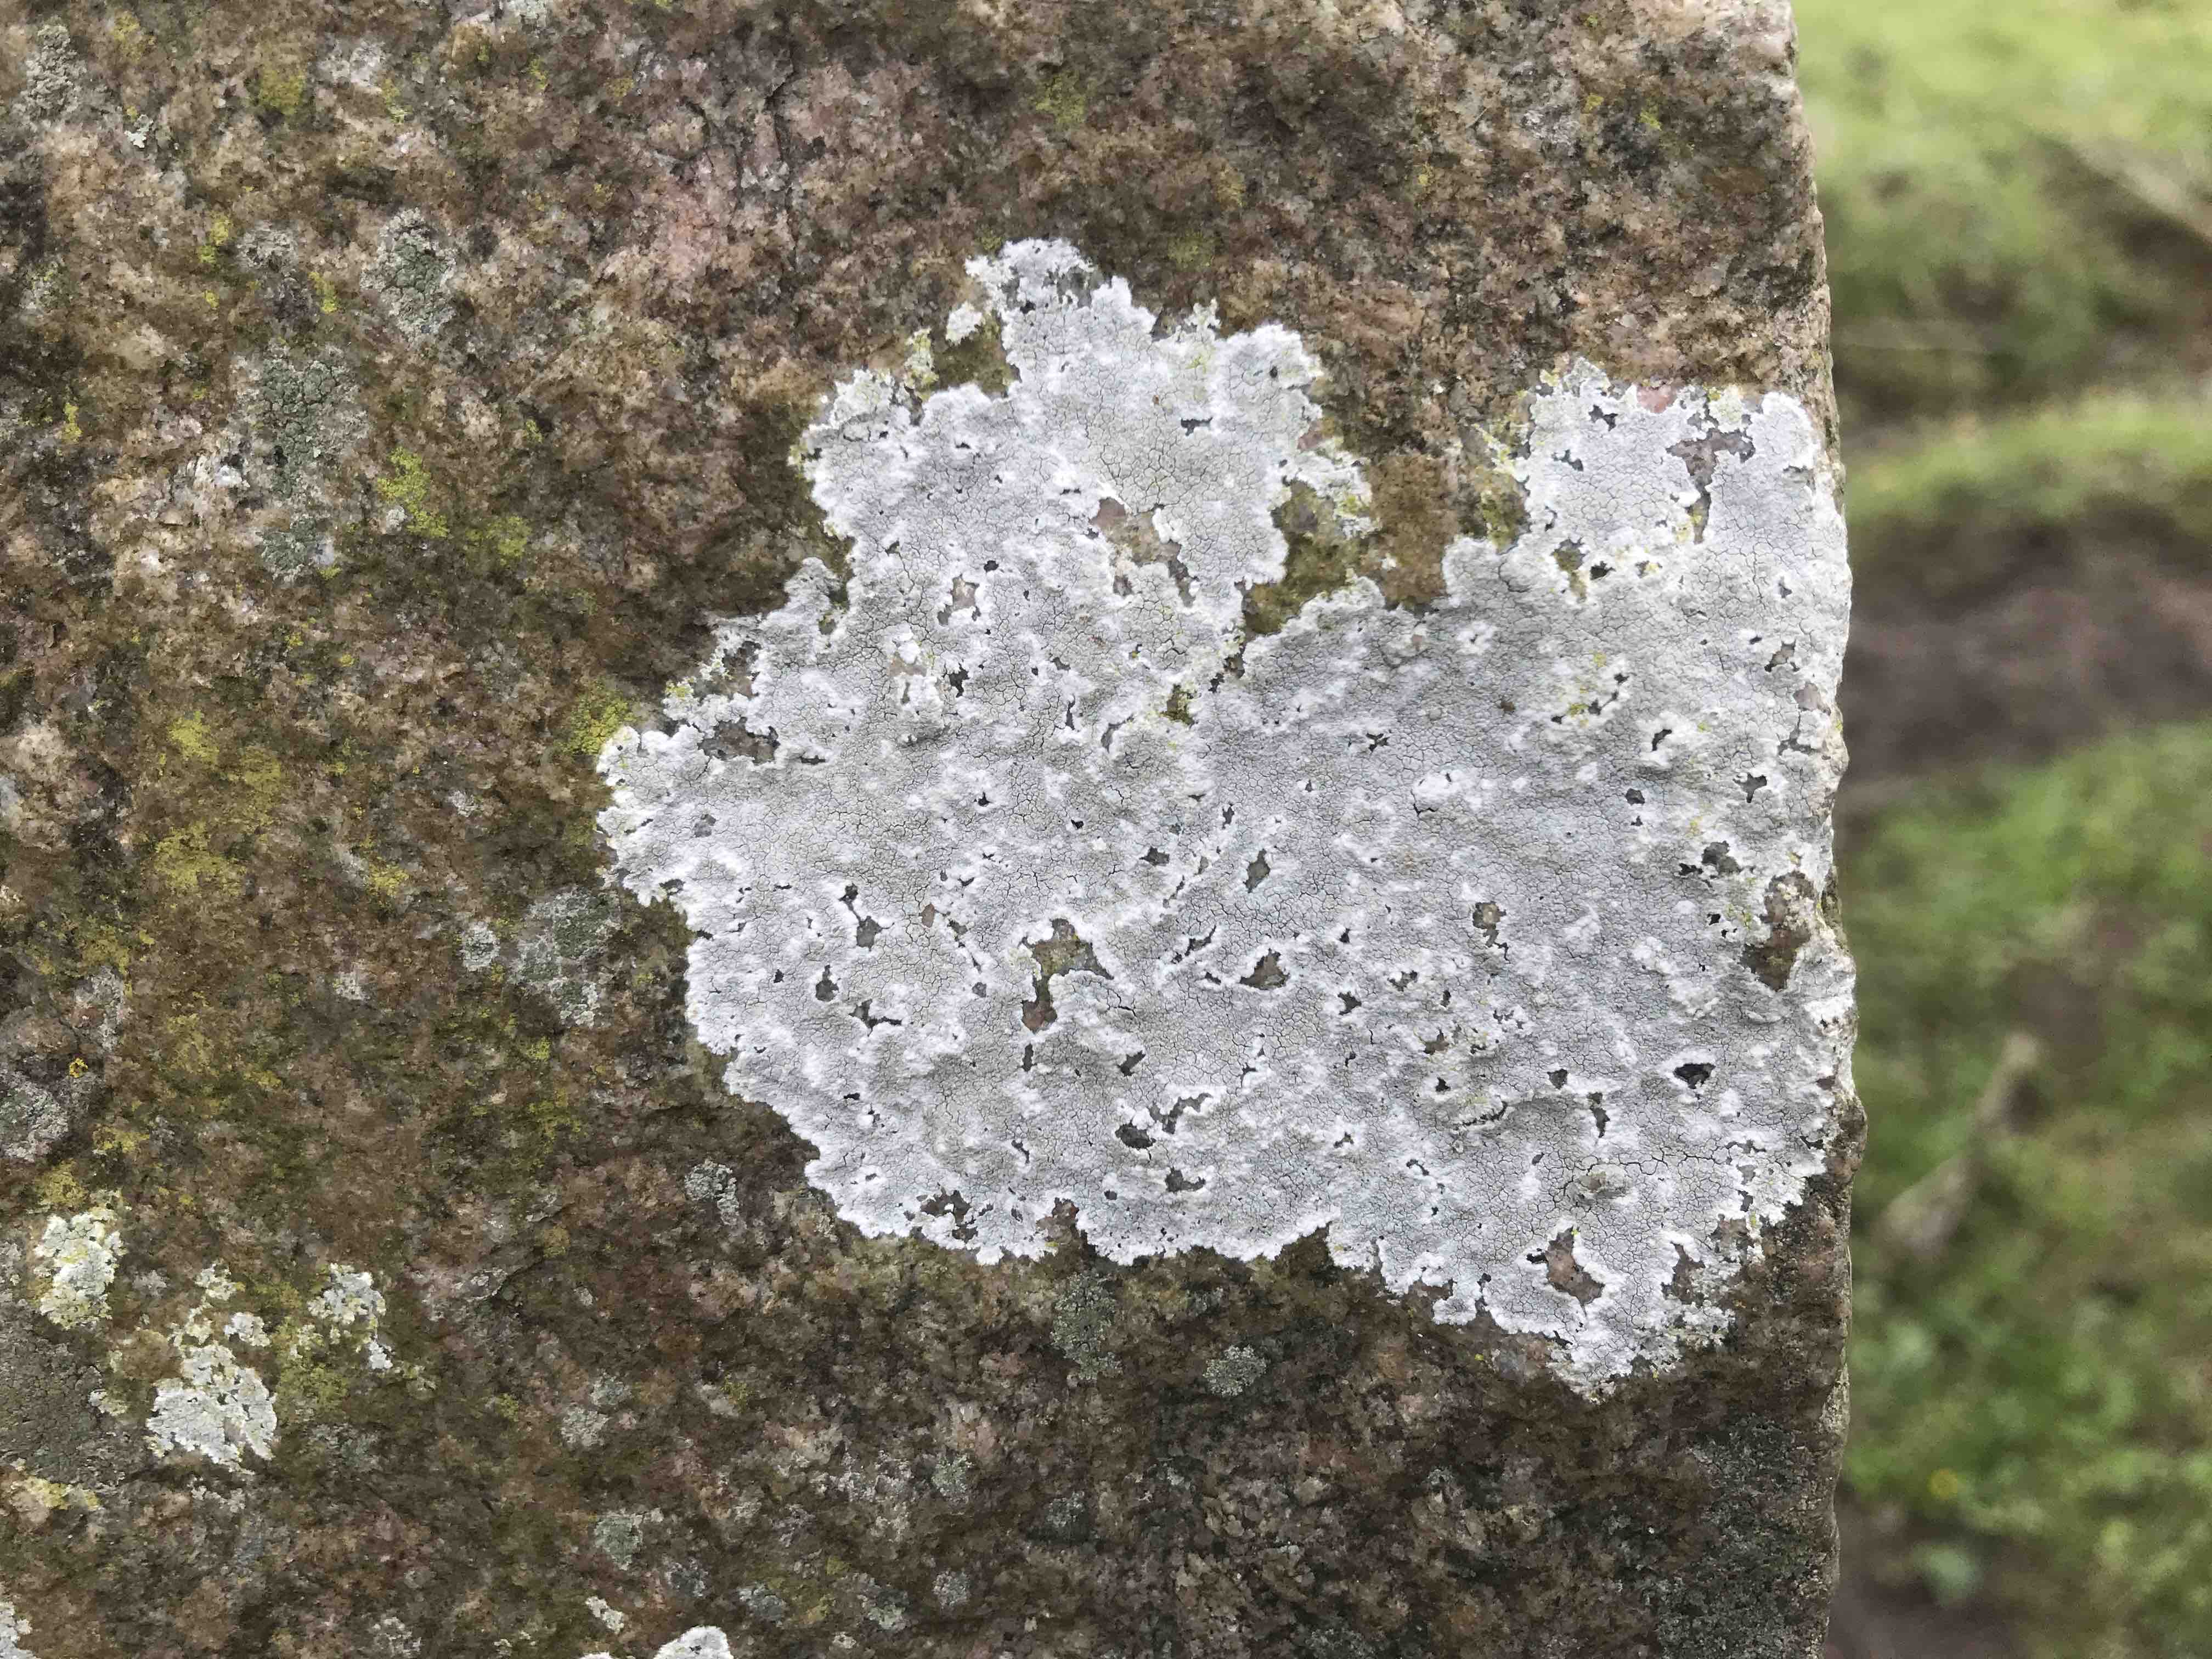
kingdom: Fungi
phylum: Ascomycota
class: Lecanoromycetes
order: Lecanorales
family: Lecanoraceae
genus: Glaucomaria
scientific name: Glaucomaria rupicola
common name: stengærde-kantskivelav
